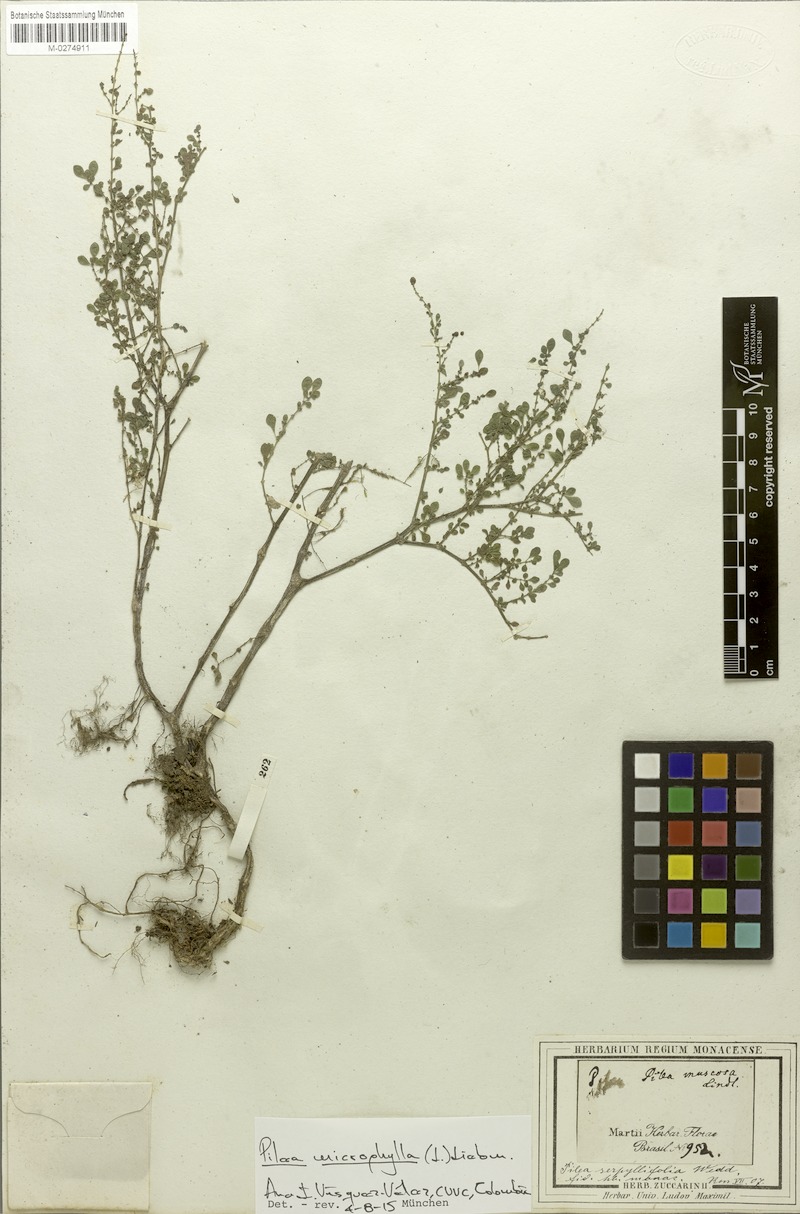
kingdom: Plantae
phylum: Tracheophyta
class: Magnoliopsida
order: Rosales
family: Urticaceae
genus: Pilea
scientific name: Pilea microphylla
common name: Artillery-plant
